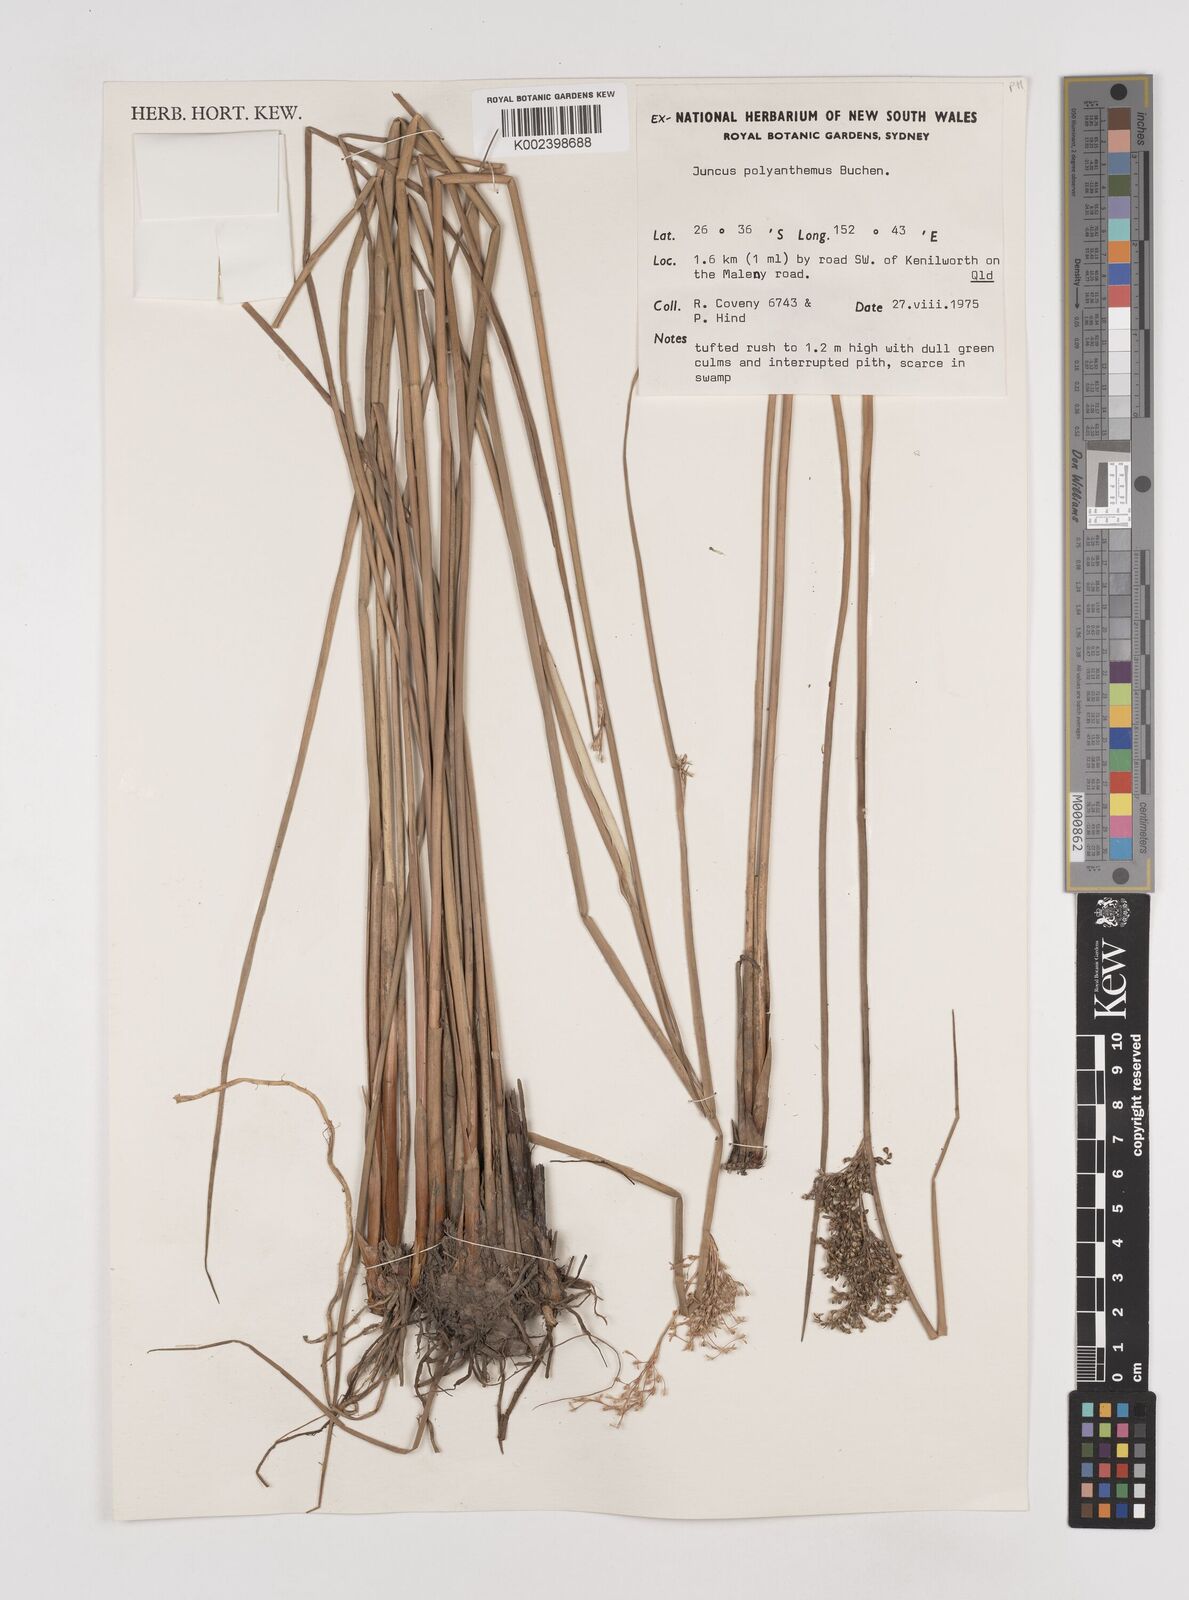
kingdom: Plantae
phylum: Tracheophyta
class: Liliopsida
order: Poales
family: Juncaceae
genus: Juncus
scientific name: Juncus polyanthemus
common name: Manyflower rush
